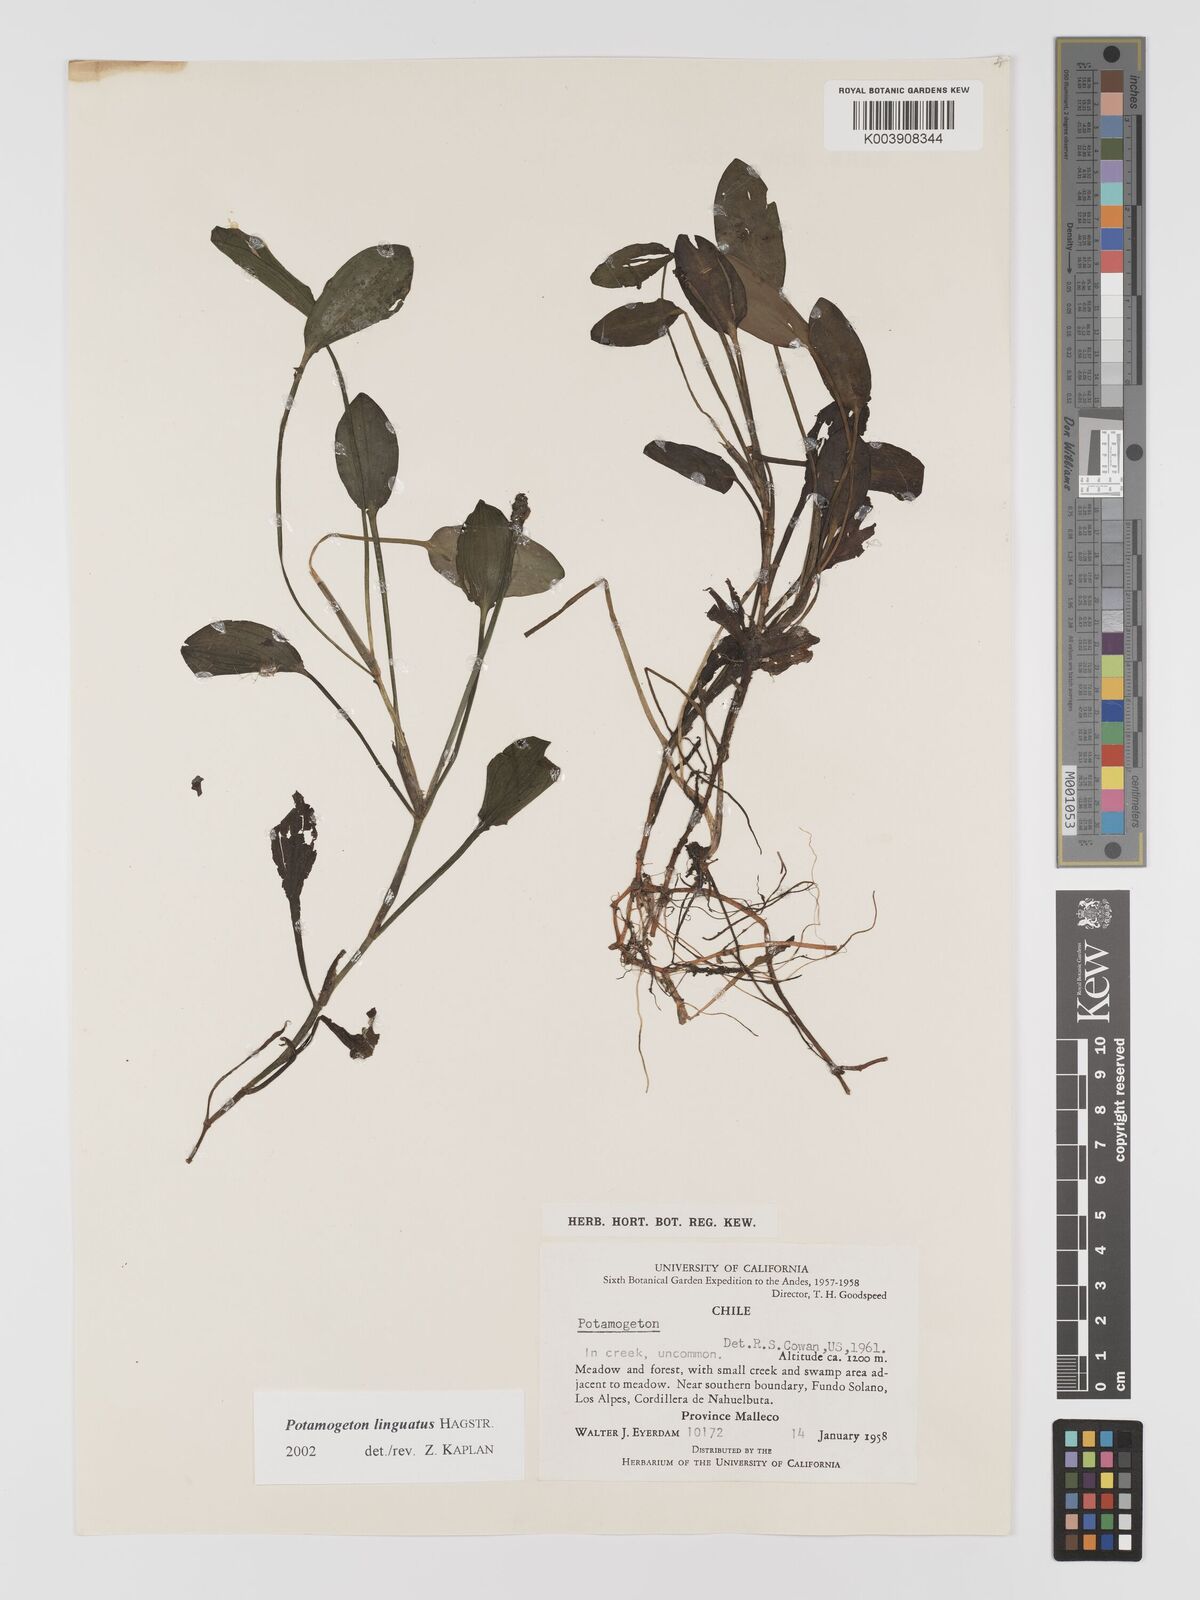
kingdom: Plantae
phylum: Tracheophyta
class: Liliopsida
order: Alismatales
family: Potamogetonaceae
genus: Potamogeton
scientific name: Potamogeton linguatus
